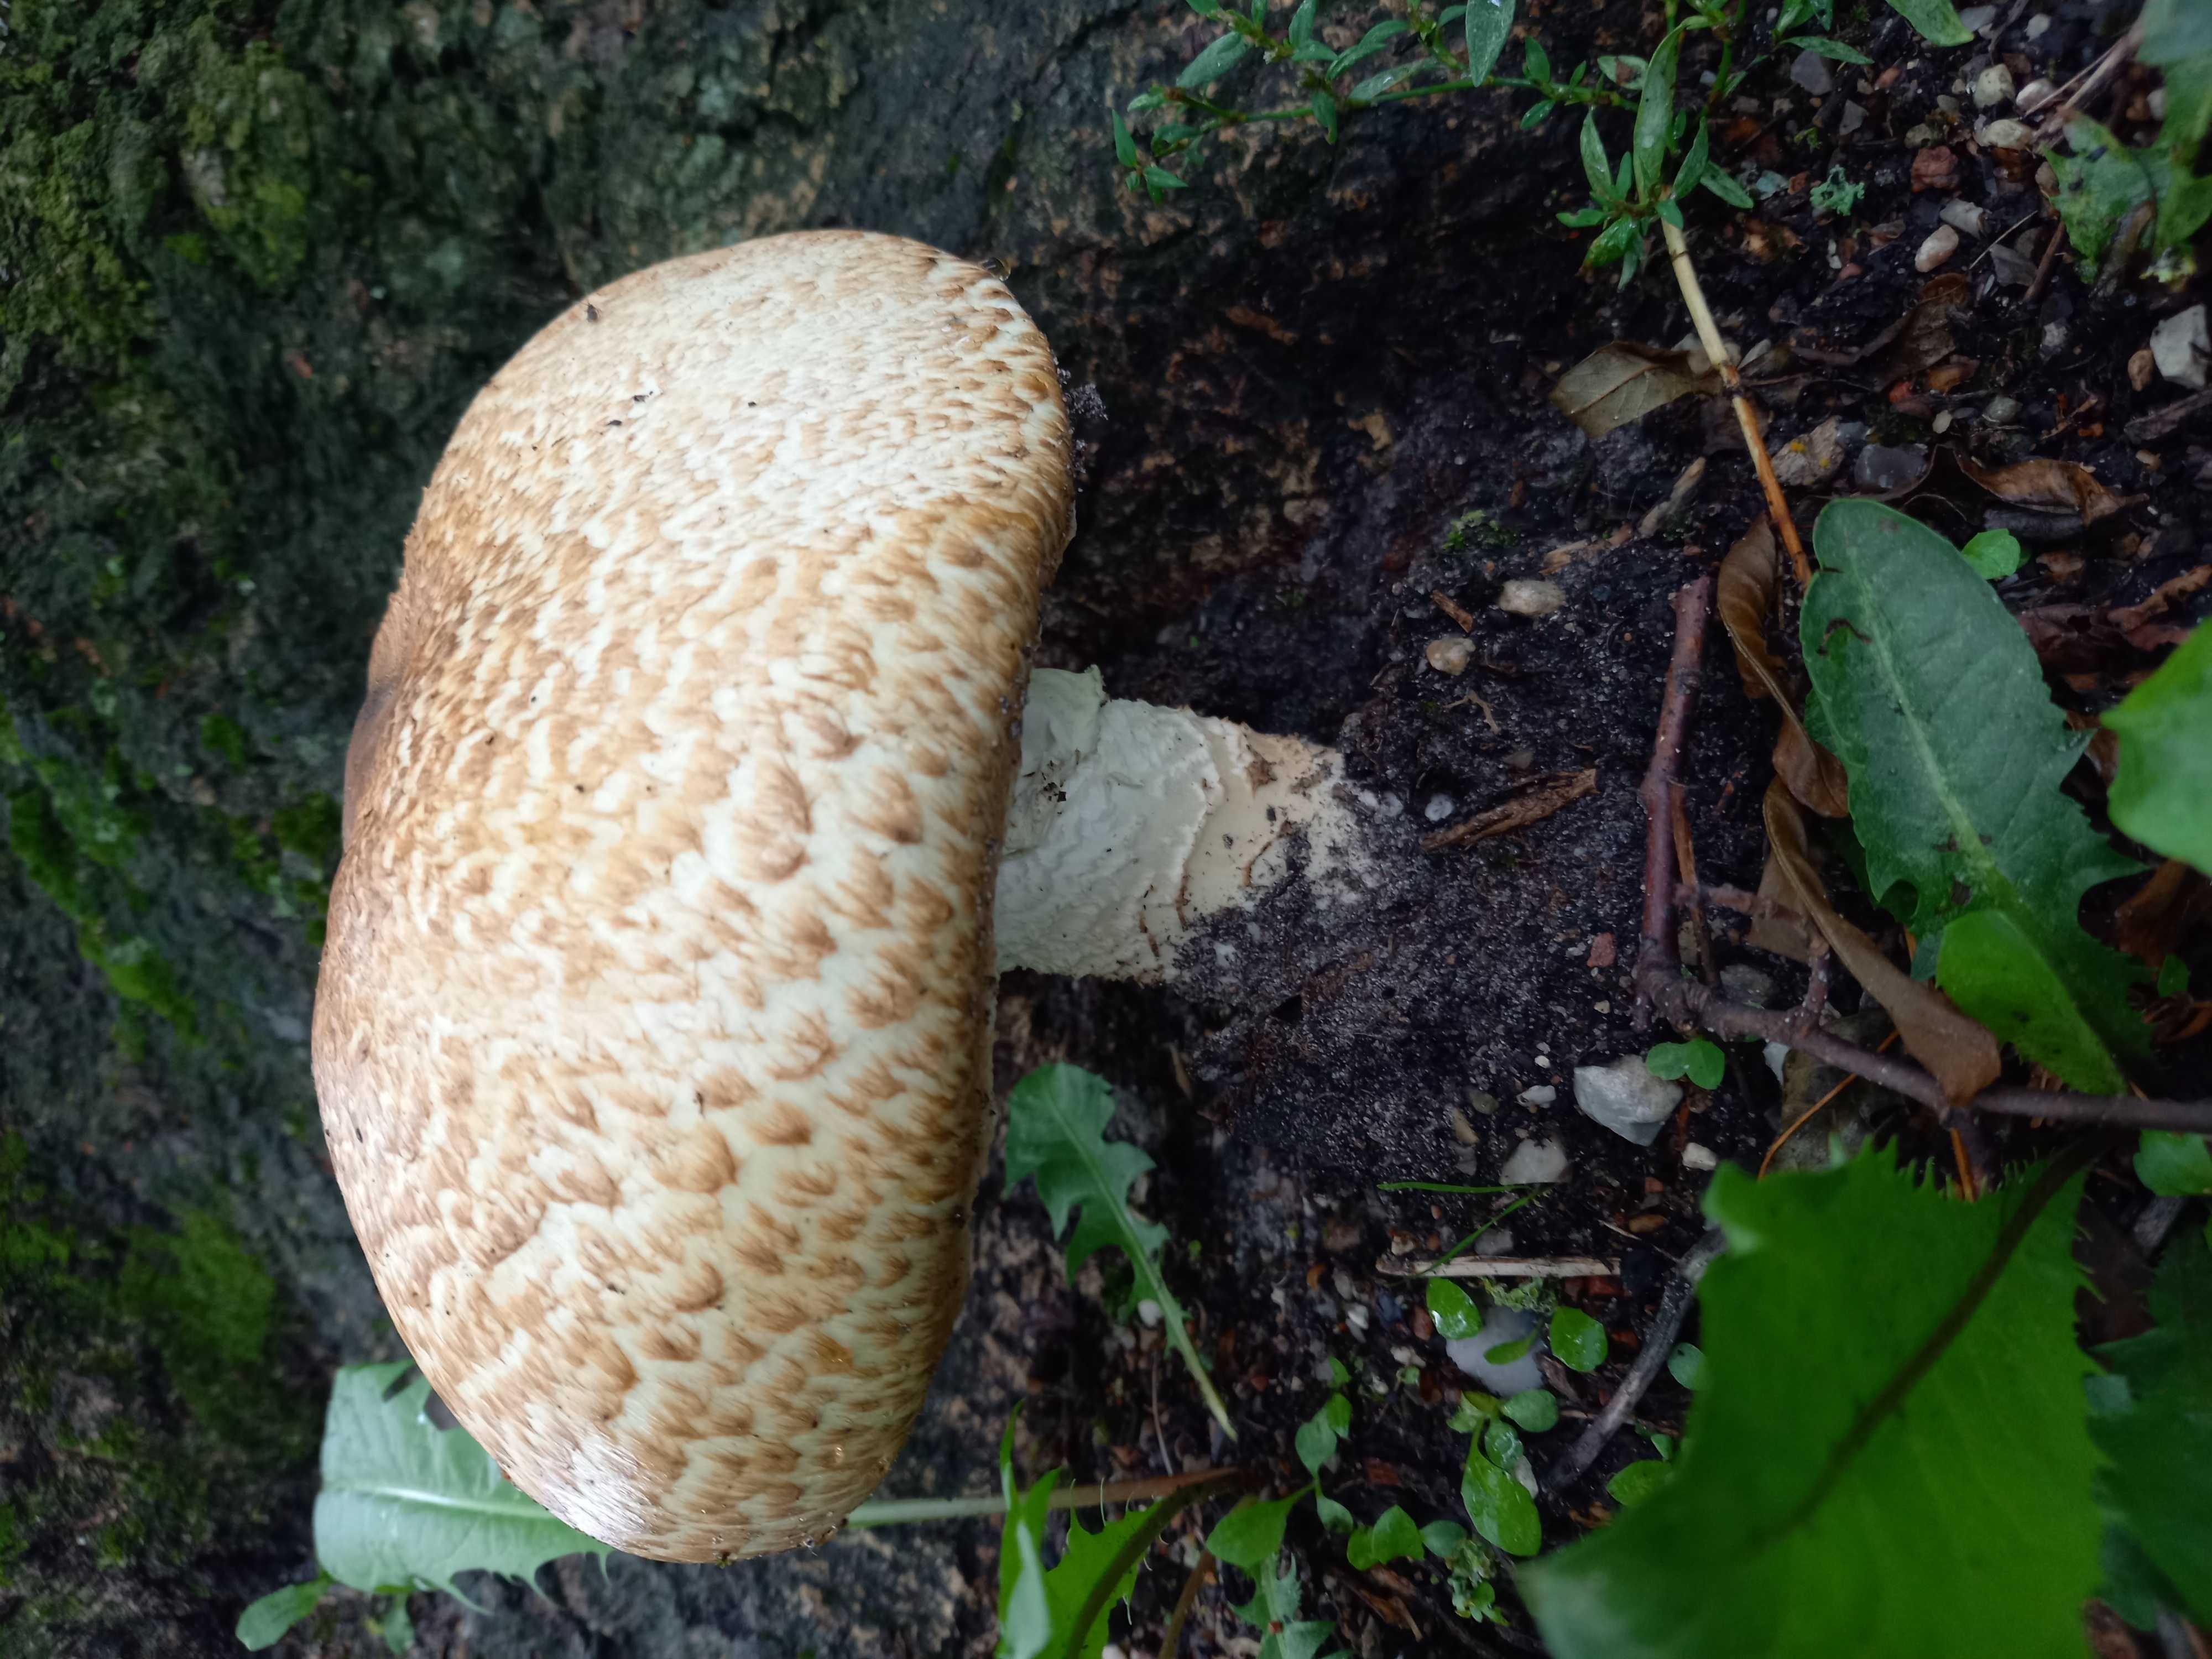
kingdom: Fungi
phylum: Basidiomycota
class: Agaricomycetes
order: Agaricales
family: Agaricaceae
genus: Agaricus
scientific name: Agaricus augustus
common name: prægtig champignon
